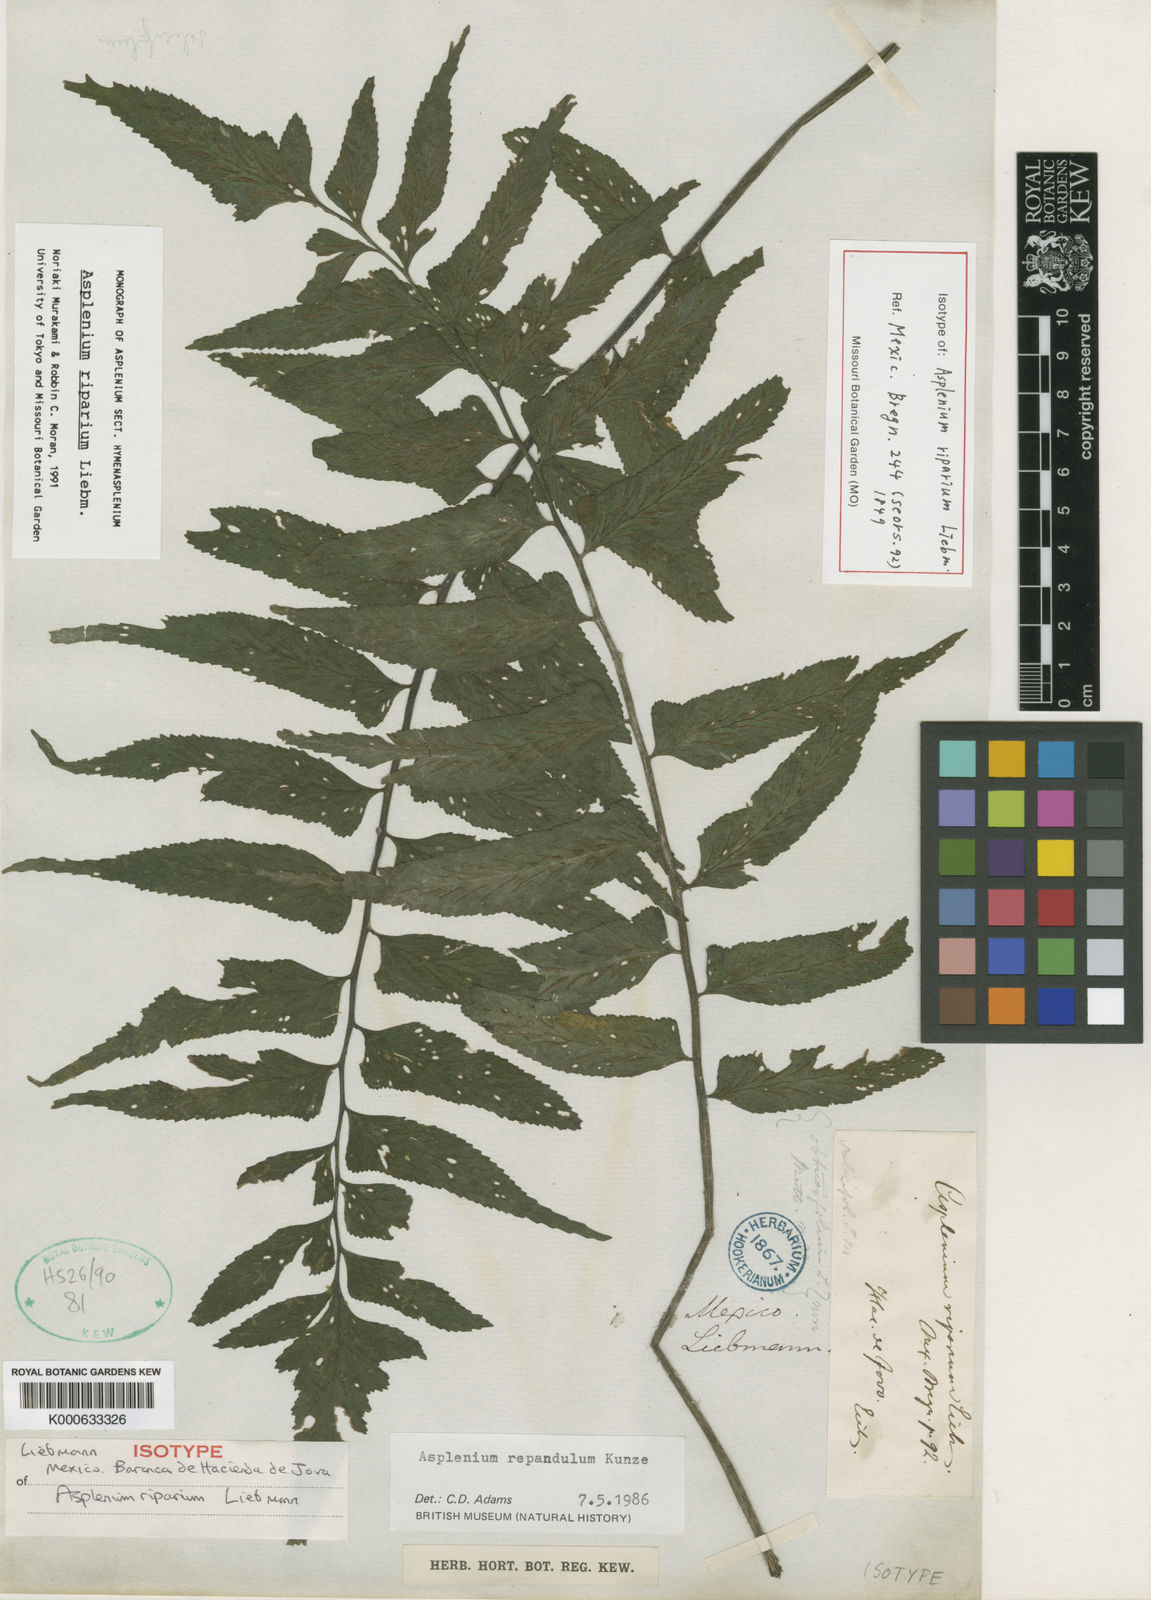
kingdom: Plantae
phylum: Tracheophyta
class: Polypodiopsida
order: Polypodiales
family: Aspleniaceae
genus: Hymenasplenium
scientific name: Hymenasplenium riparium
